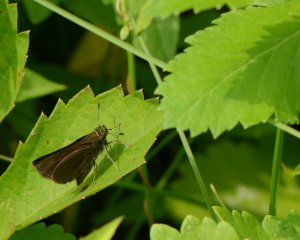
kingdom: Animalia
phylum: Arthropoda
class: Insecta
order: Lepidoptera
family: Hesperiidae
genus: Euphyes
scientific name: Euphyes vestris
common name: Dun Skipper
